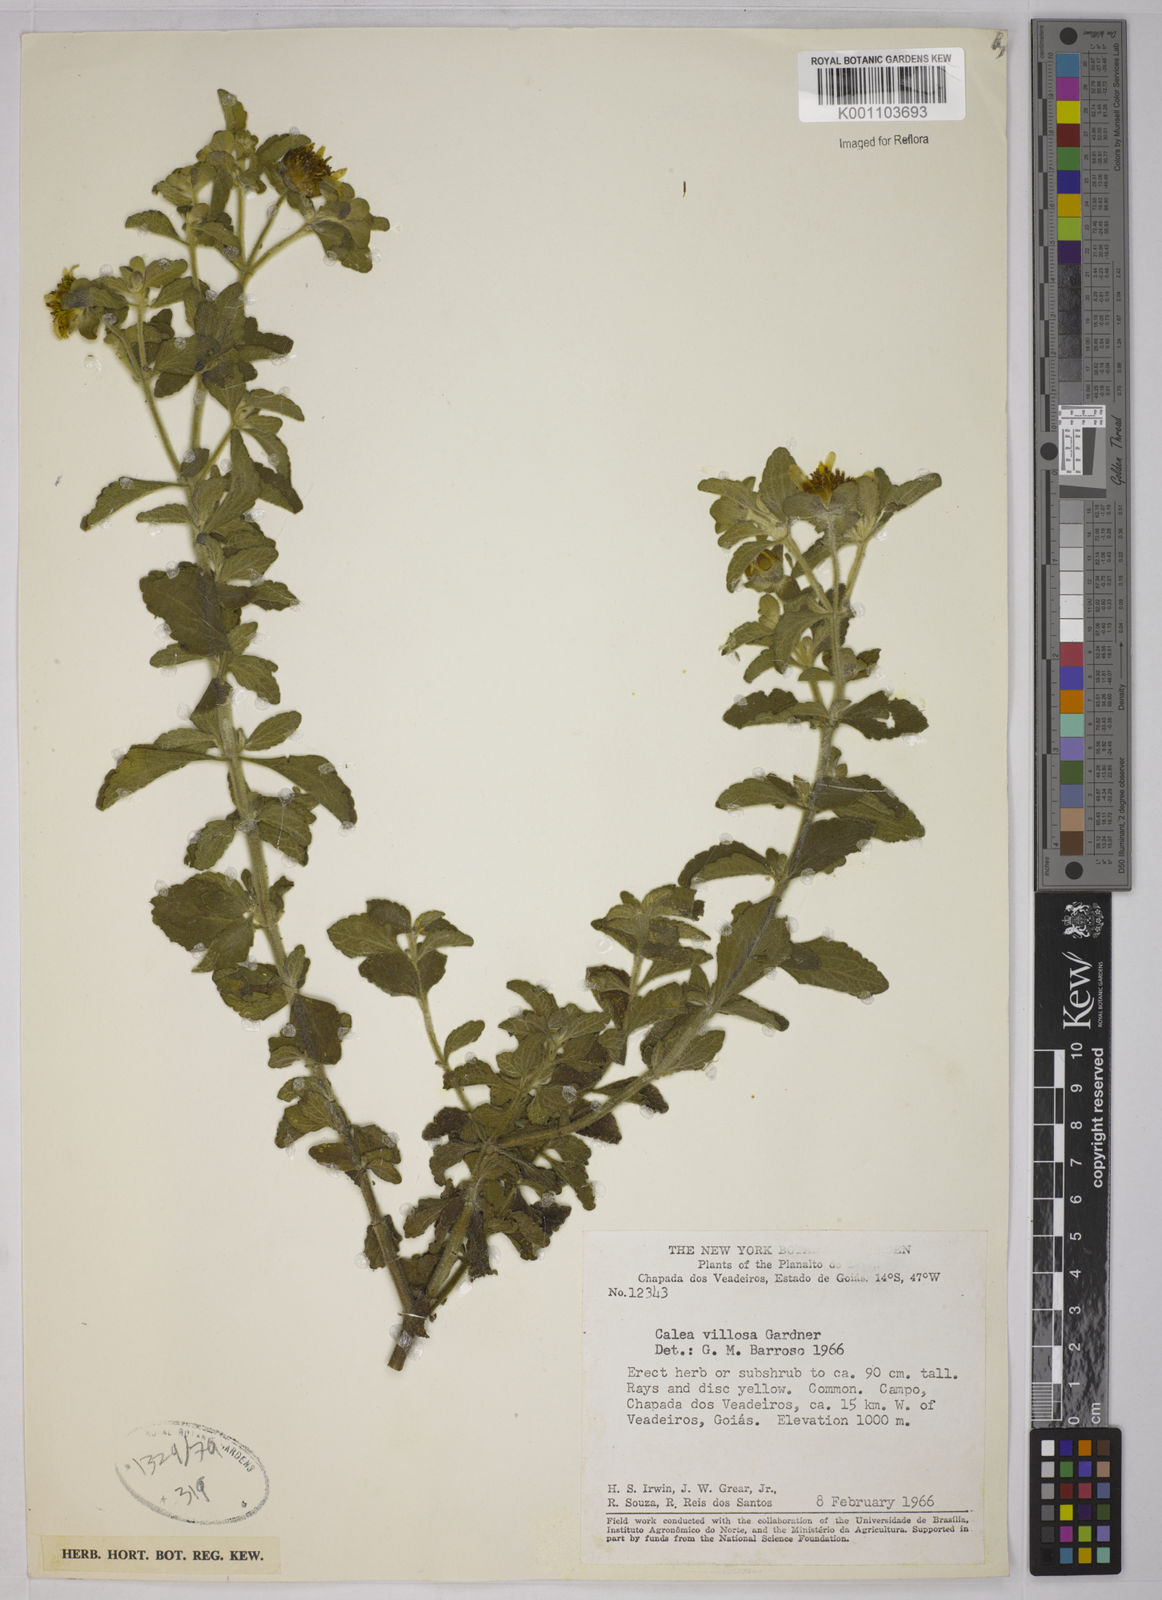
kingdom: Plantae
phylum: Tracheophyta
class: Magnoliopsida
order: Asterales
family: Asteraceae
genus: Calea
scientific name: Calea villosa
